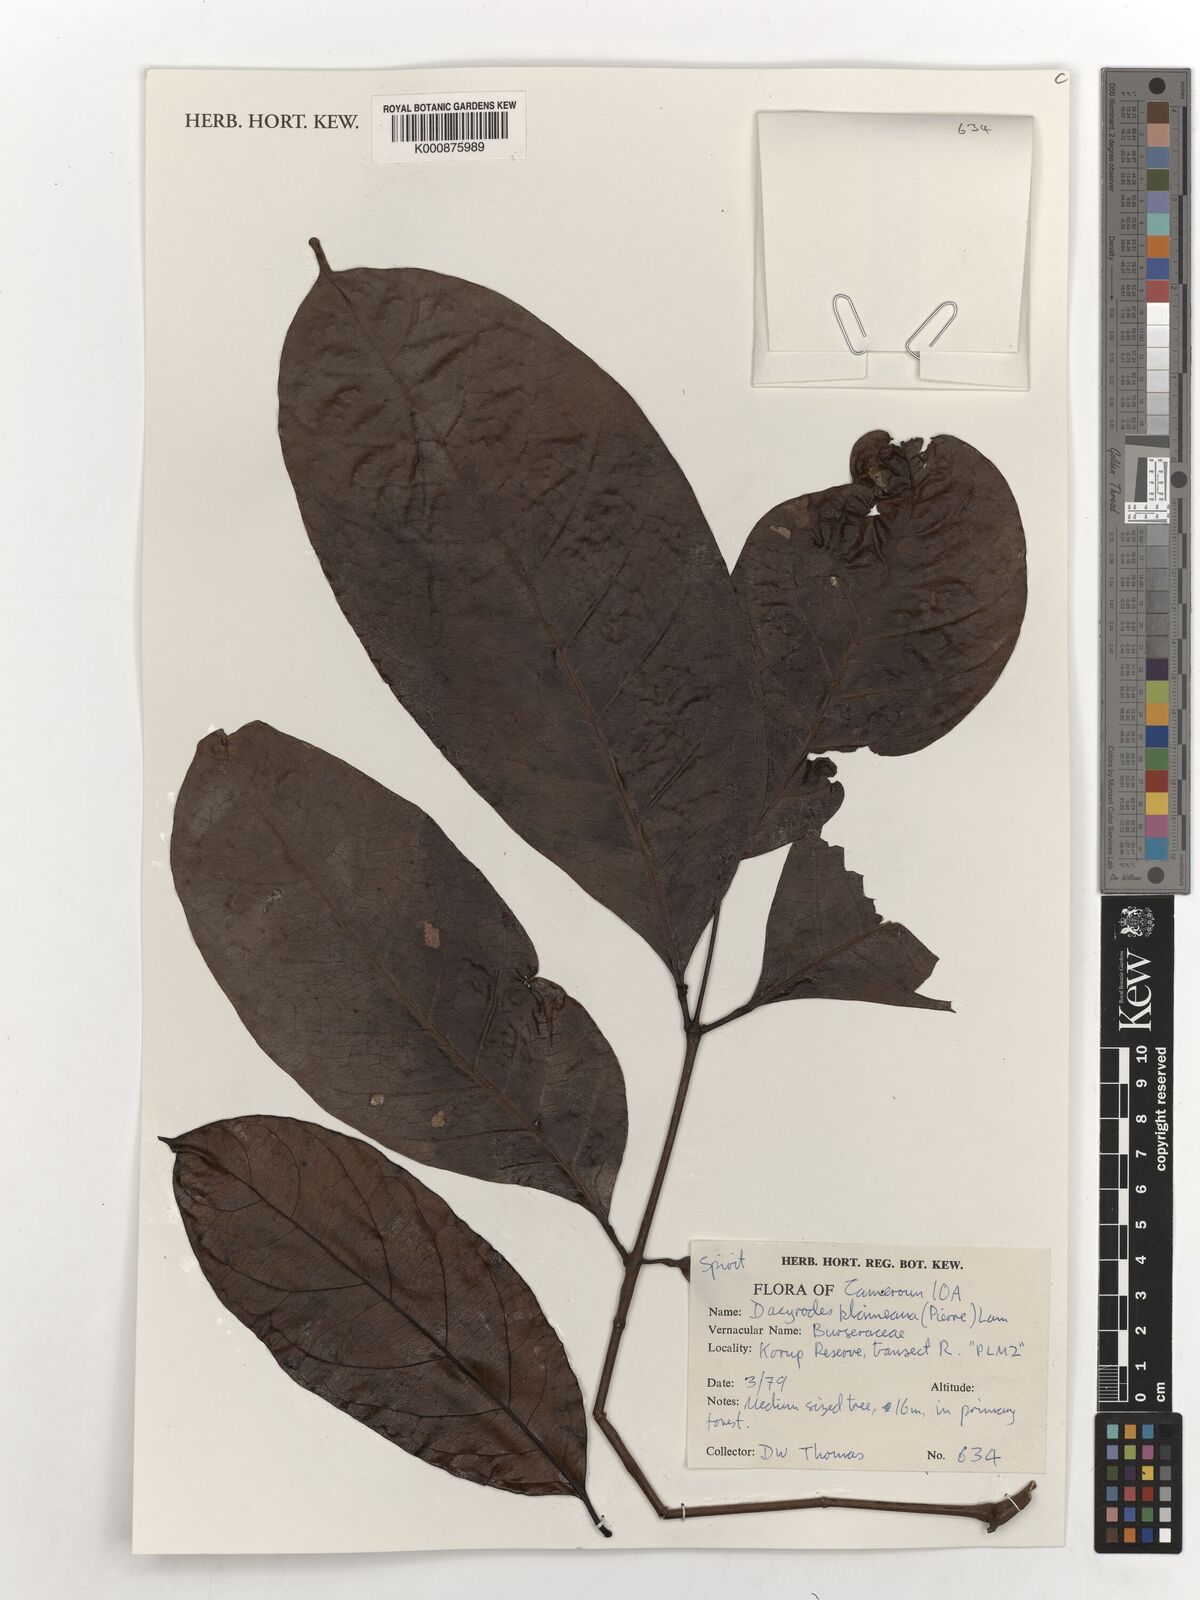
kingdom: Plantae
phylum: Tracheophyta
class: Magnoliopsida
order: Sapindales
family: Burseraceae
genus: Pachylobus
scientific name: Pachylobus klaineana
